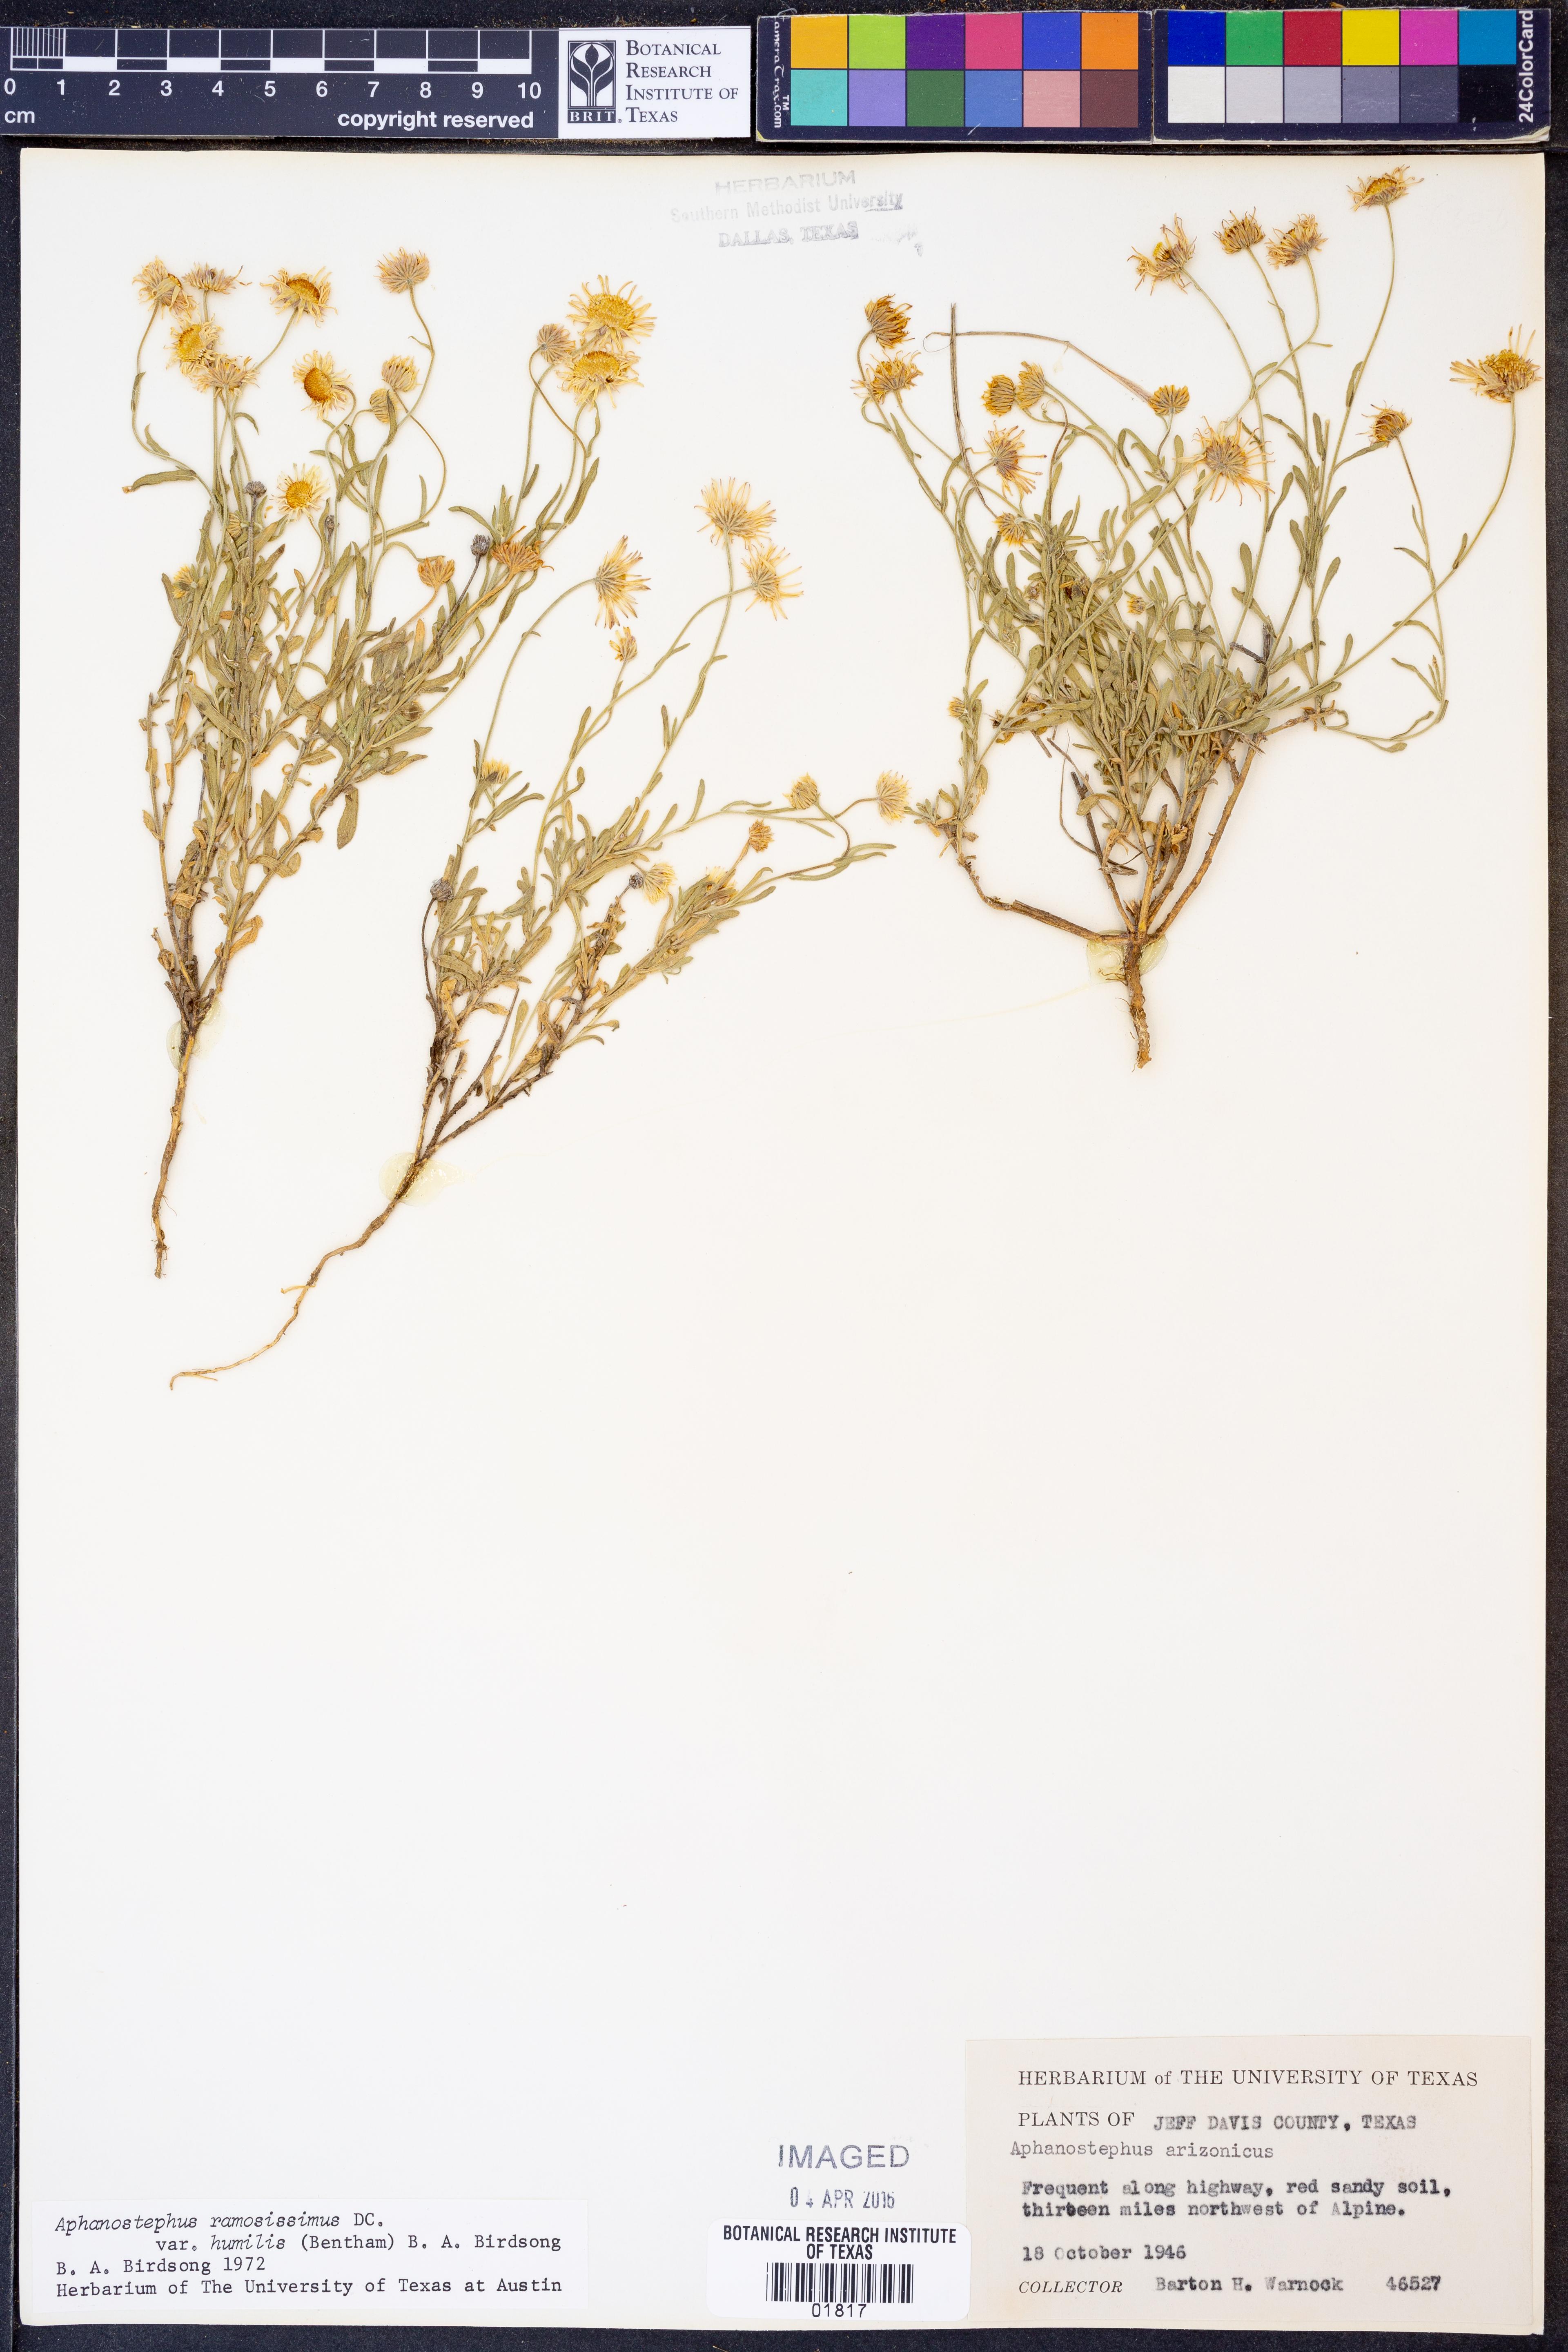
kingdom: Plantae
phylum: Tracheophyta
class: Magnoliopsida
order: Asterales
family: Asteraceae
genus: Aphanostephus
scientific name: Aphanostephus ramosissimus
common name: Plains lazy daisy
